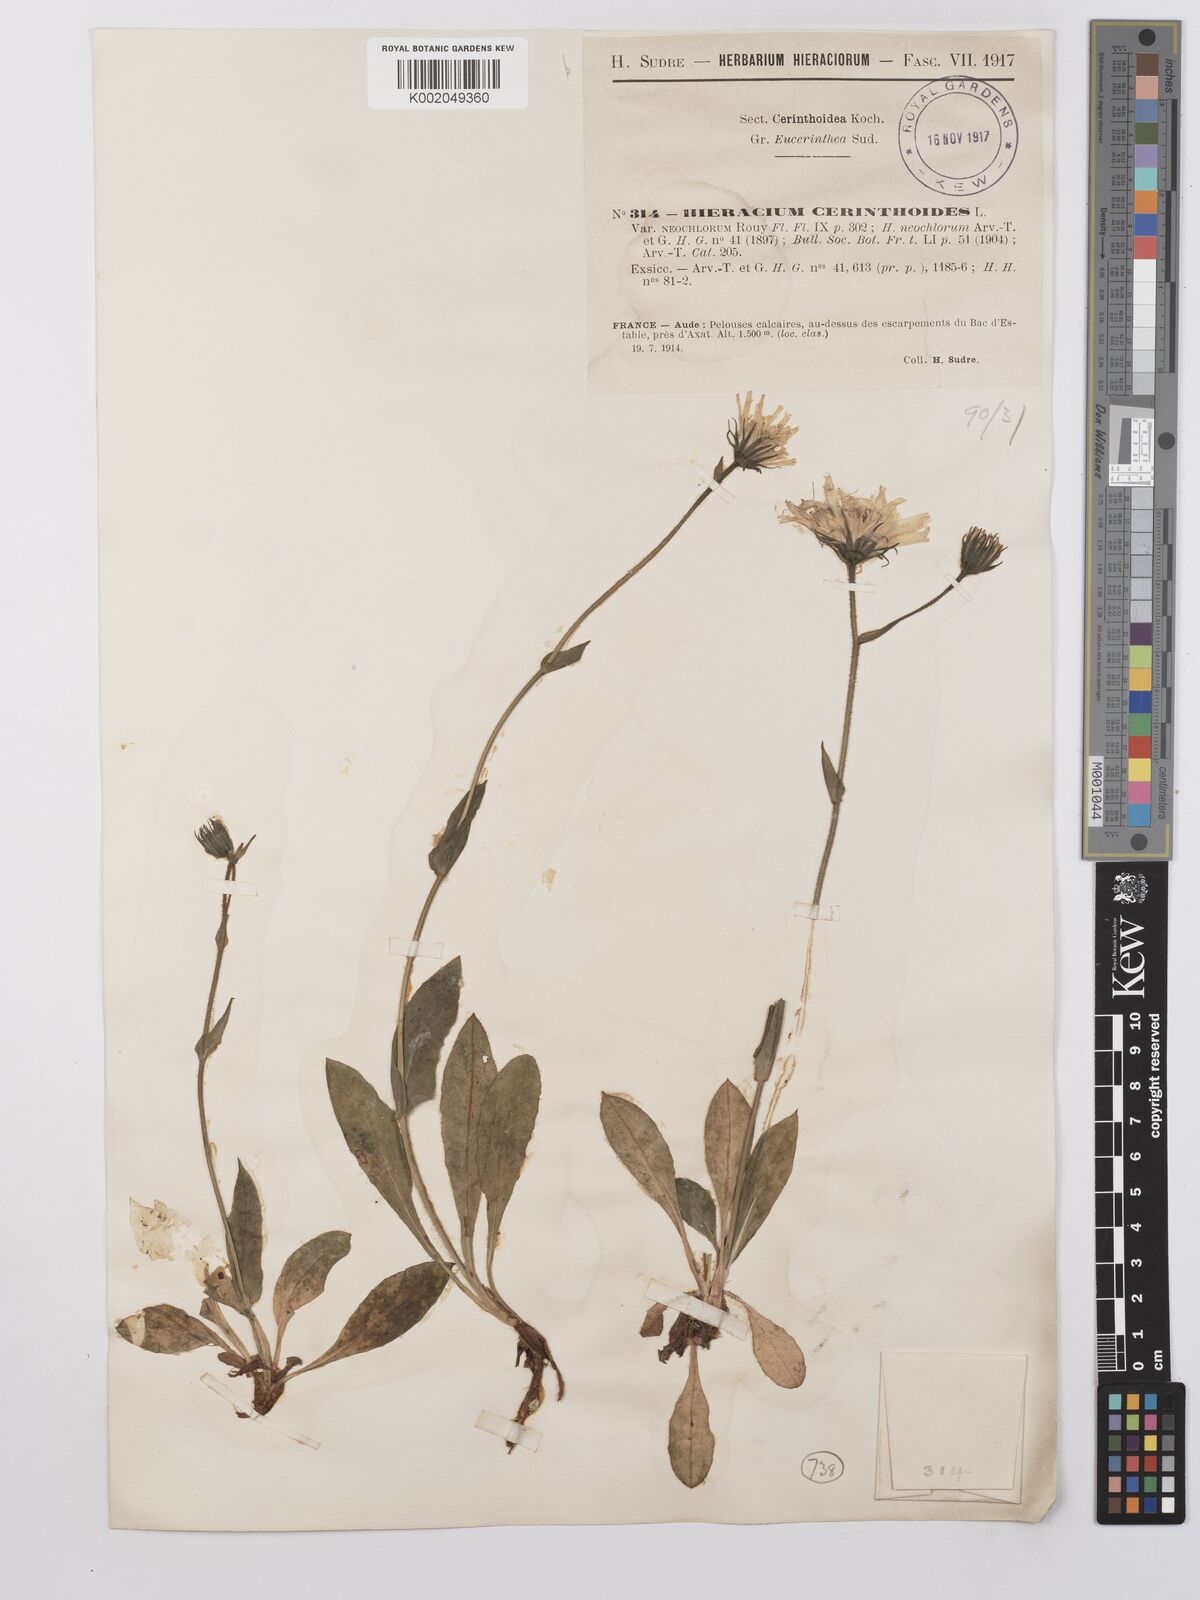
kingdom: Plantae
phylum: Tracheophyta
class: Magnoliopsida
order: Asterales
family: Asteraceae
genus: Hieracium
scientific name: Hieracium cerinthoides
